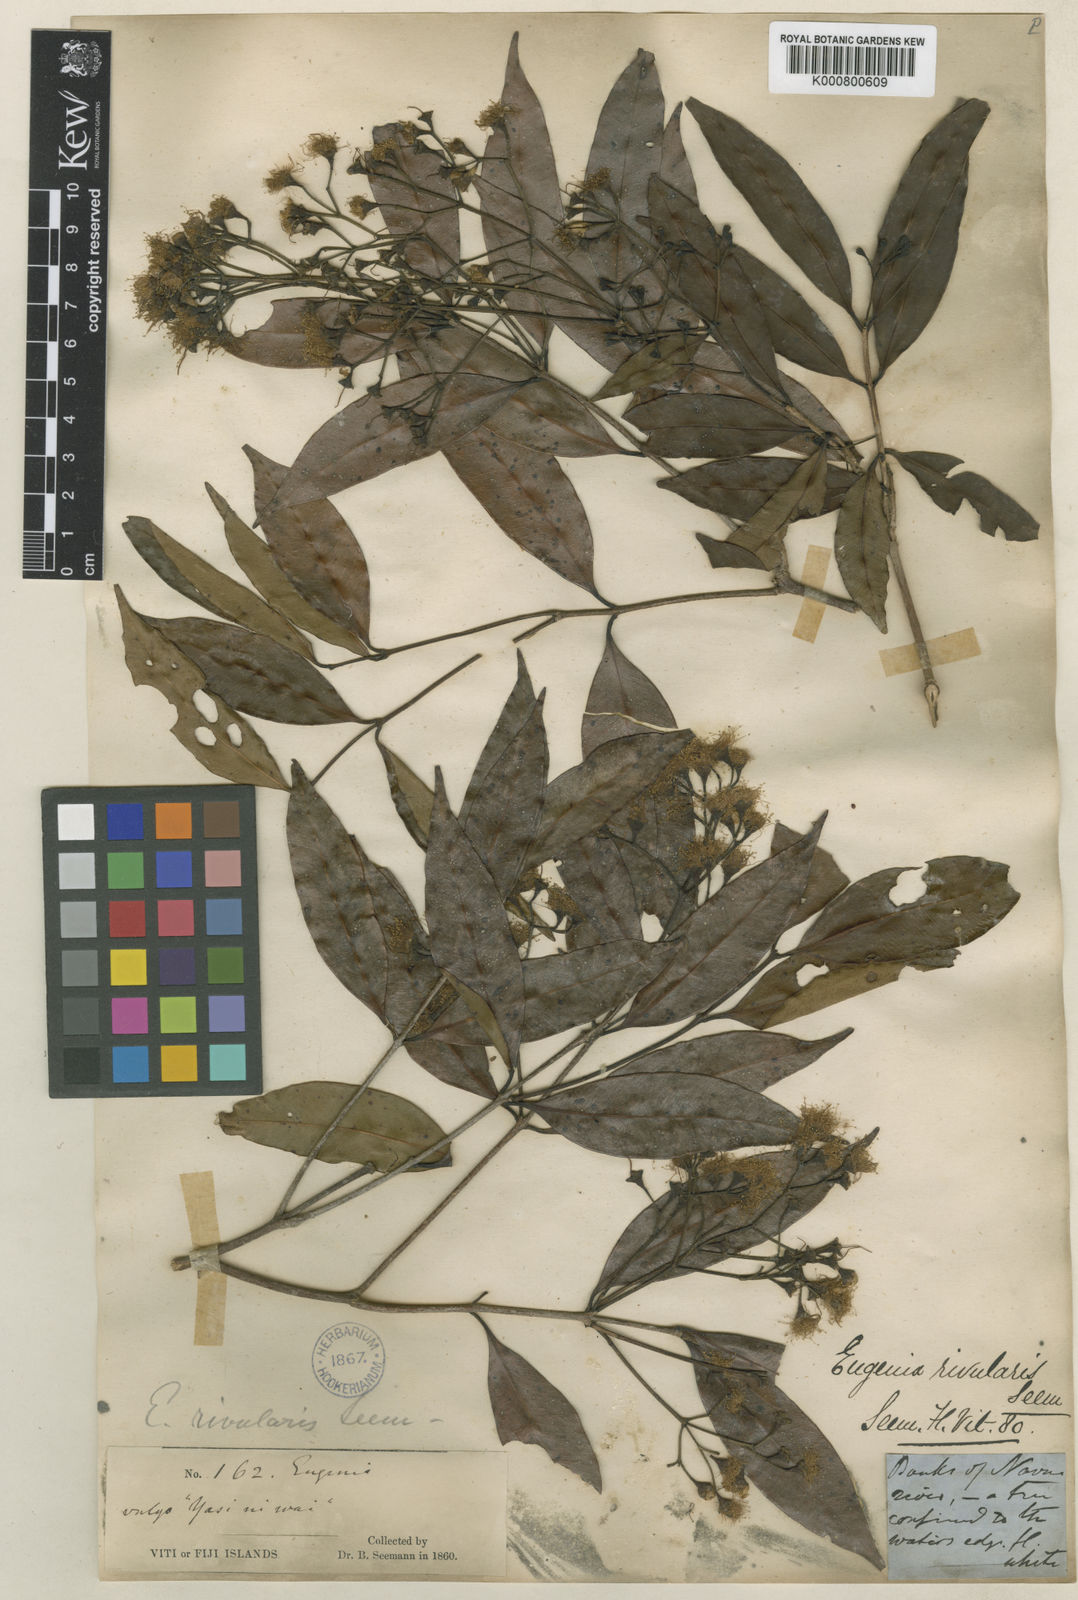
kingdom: Plantae
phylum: Tracheophyta
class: Magnoliopsida
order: Myrtales
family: Myrtaceae
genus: Syzygium
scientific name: Syzygium seemannianum
